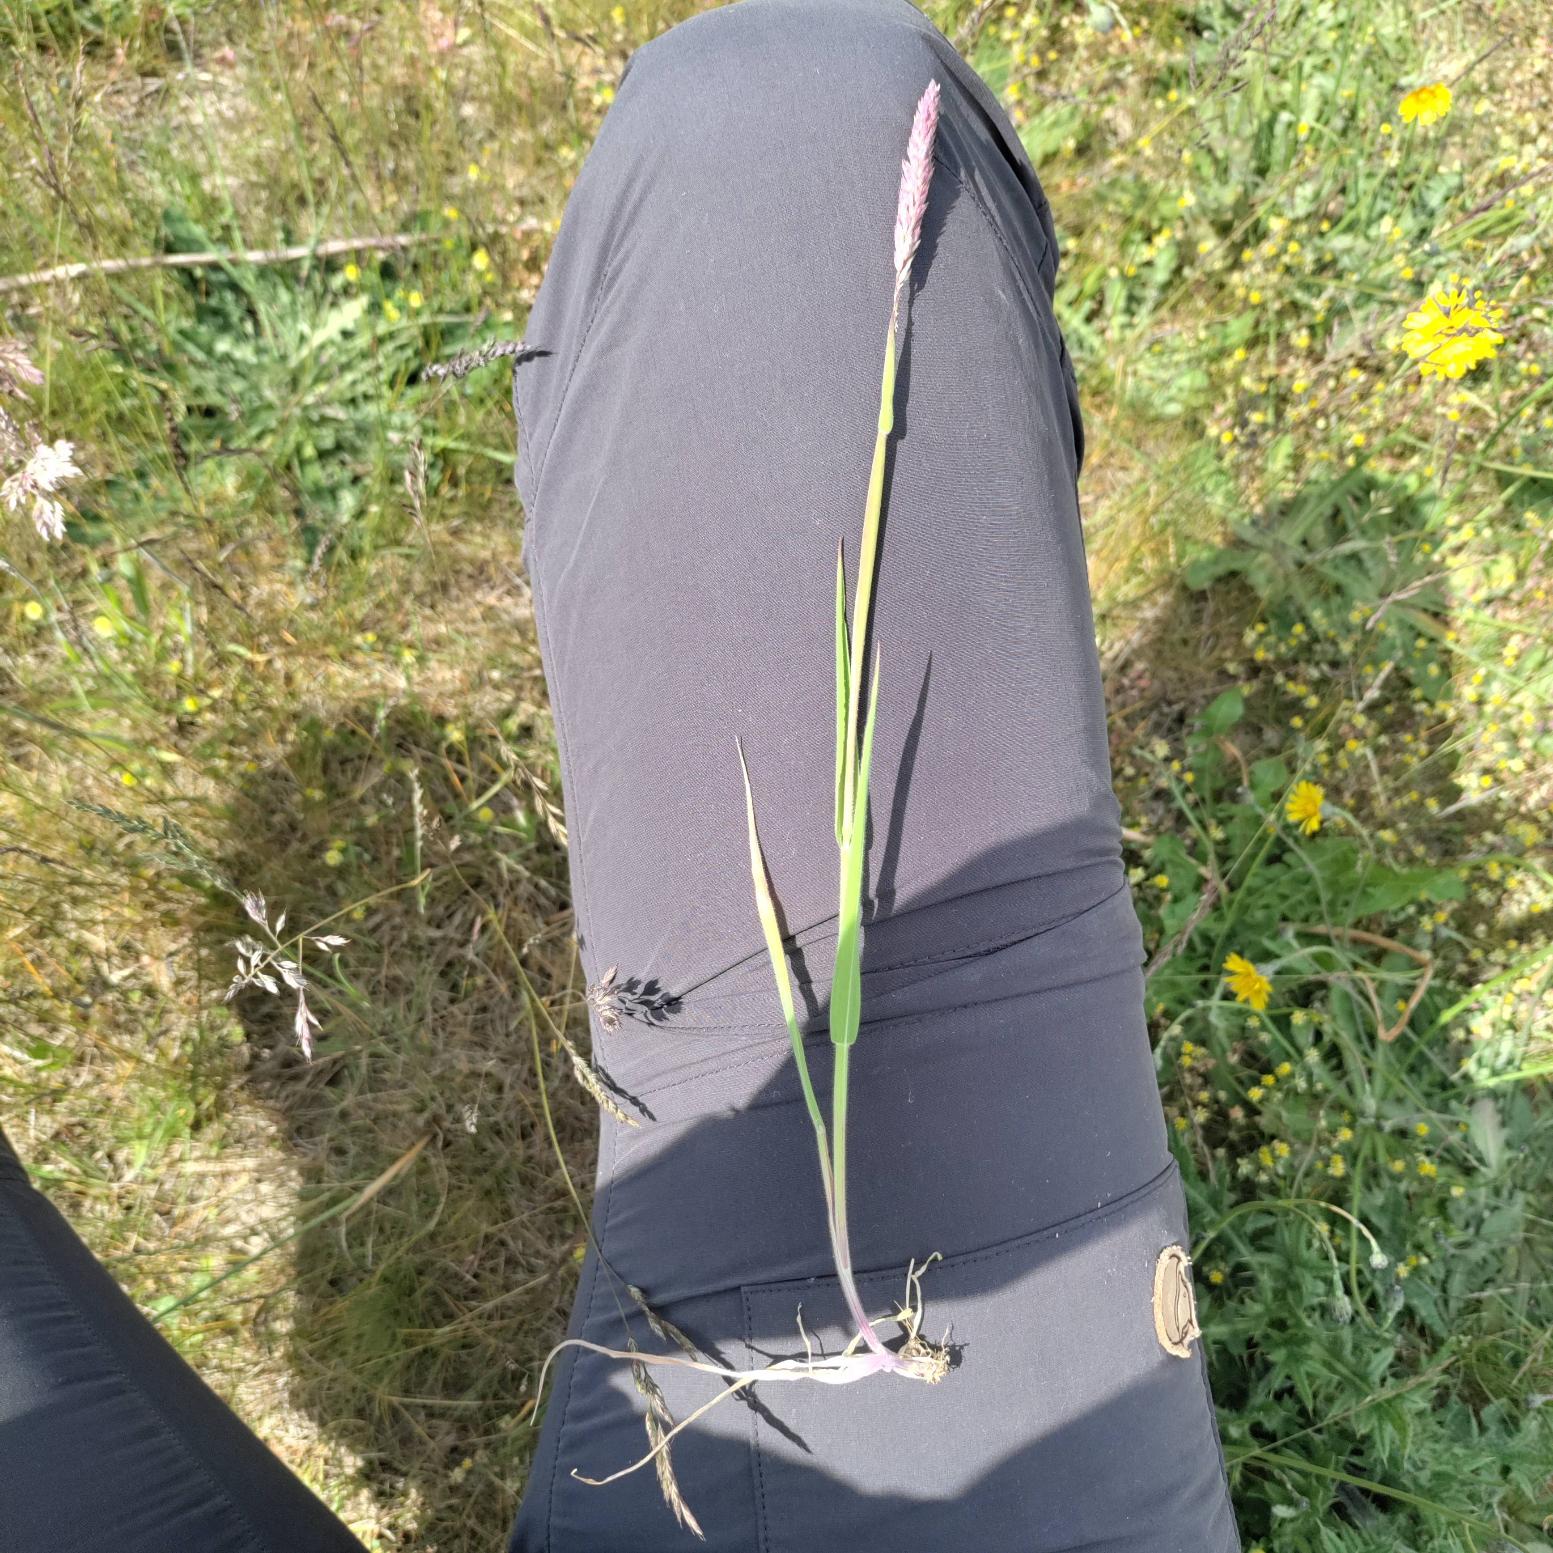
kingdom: Plantae
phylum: Tracheophyta
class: Liliopsida
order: Poales
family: Poaceae
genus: Holcus
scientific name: Holcus lanatus
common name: Fløjlsgræs
